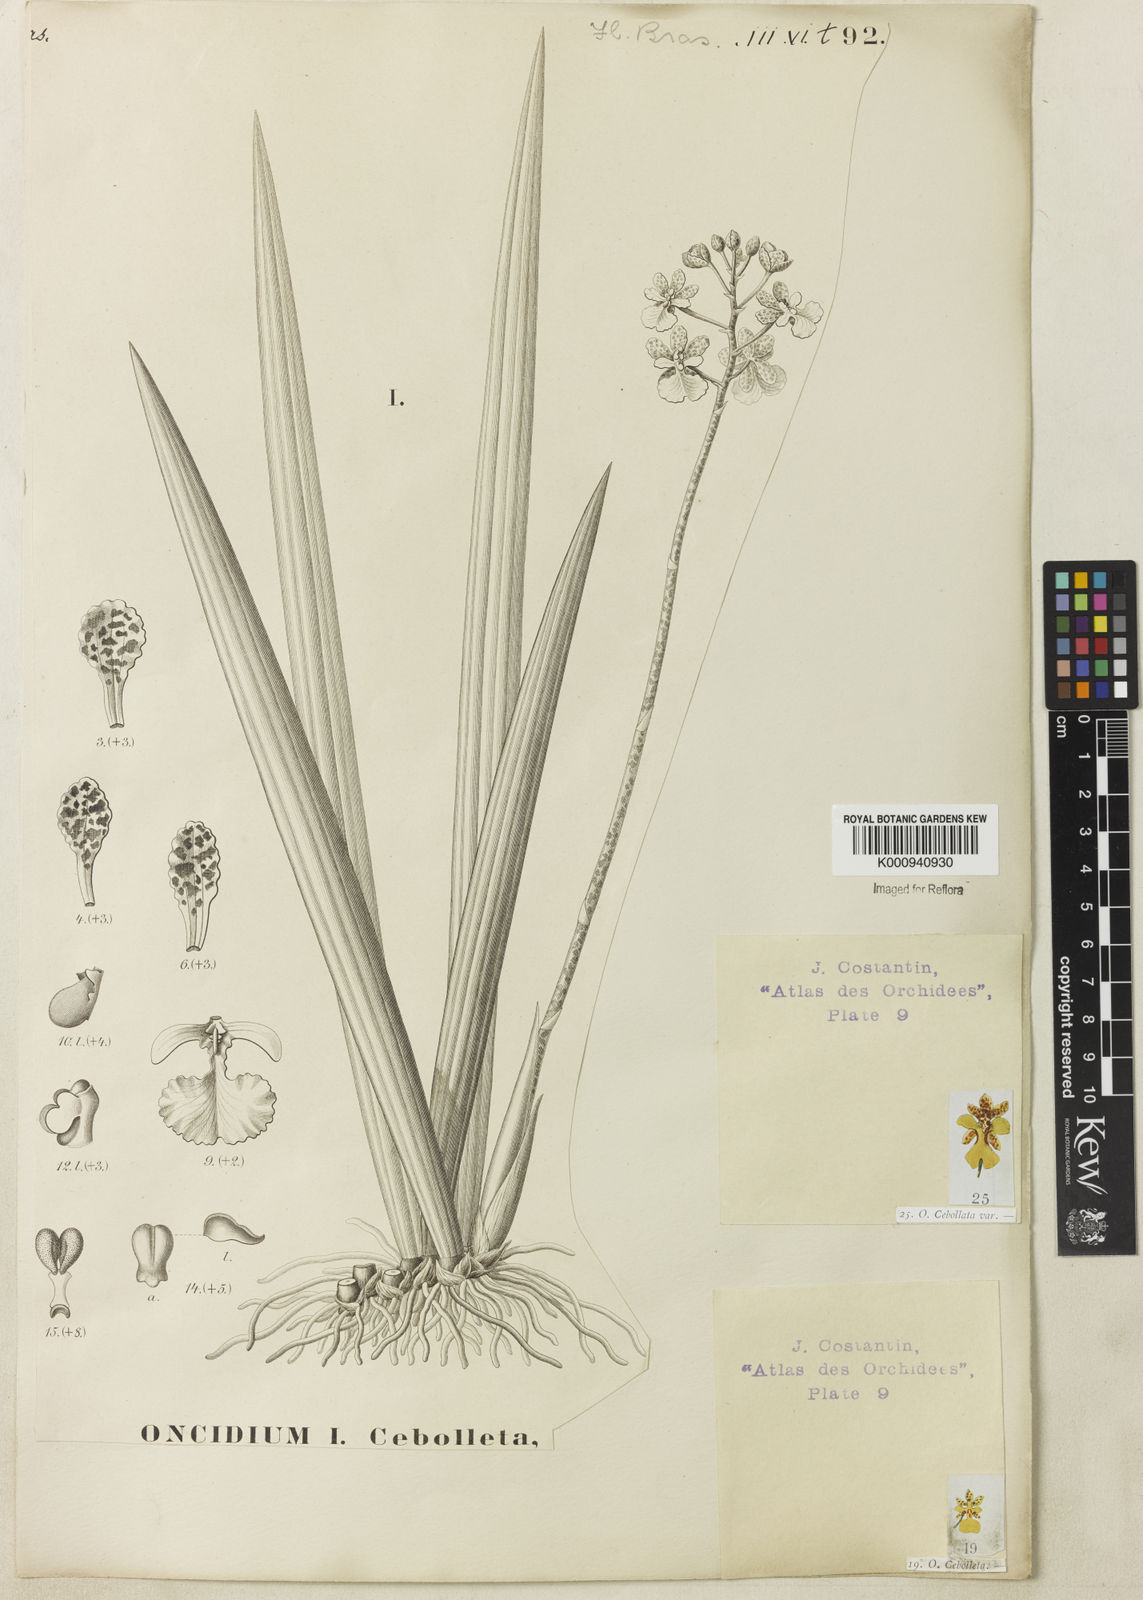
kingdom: Plantae
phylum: Tracheophyta
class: Liliopsida
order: Asparagales
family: Orchidaceae
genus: Trichocentrum
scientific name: Trichocentrum cebolleta
